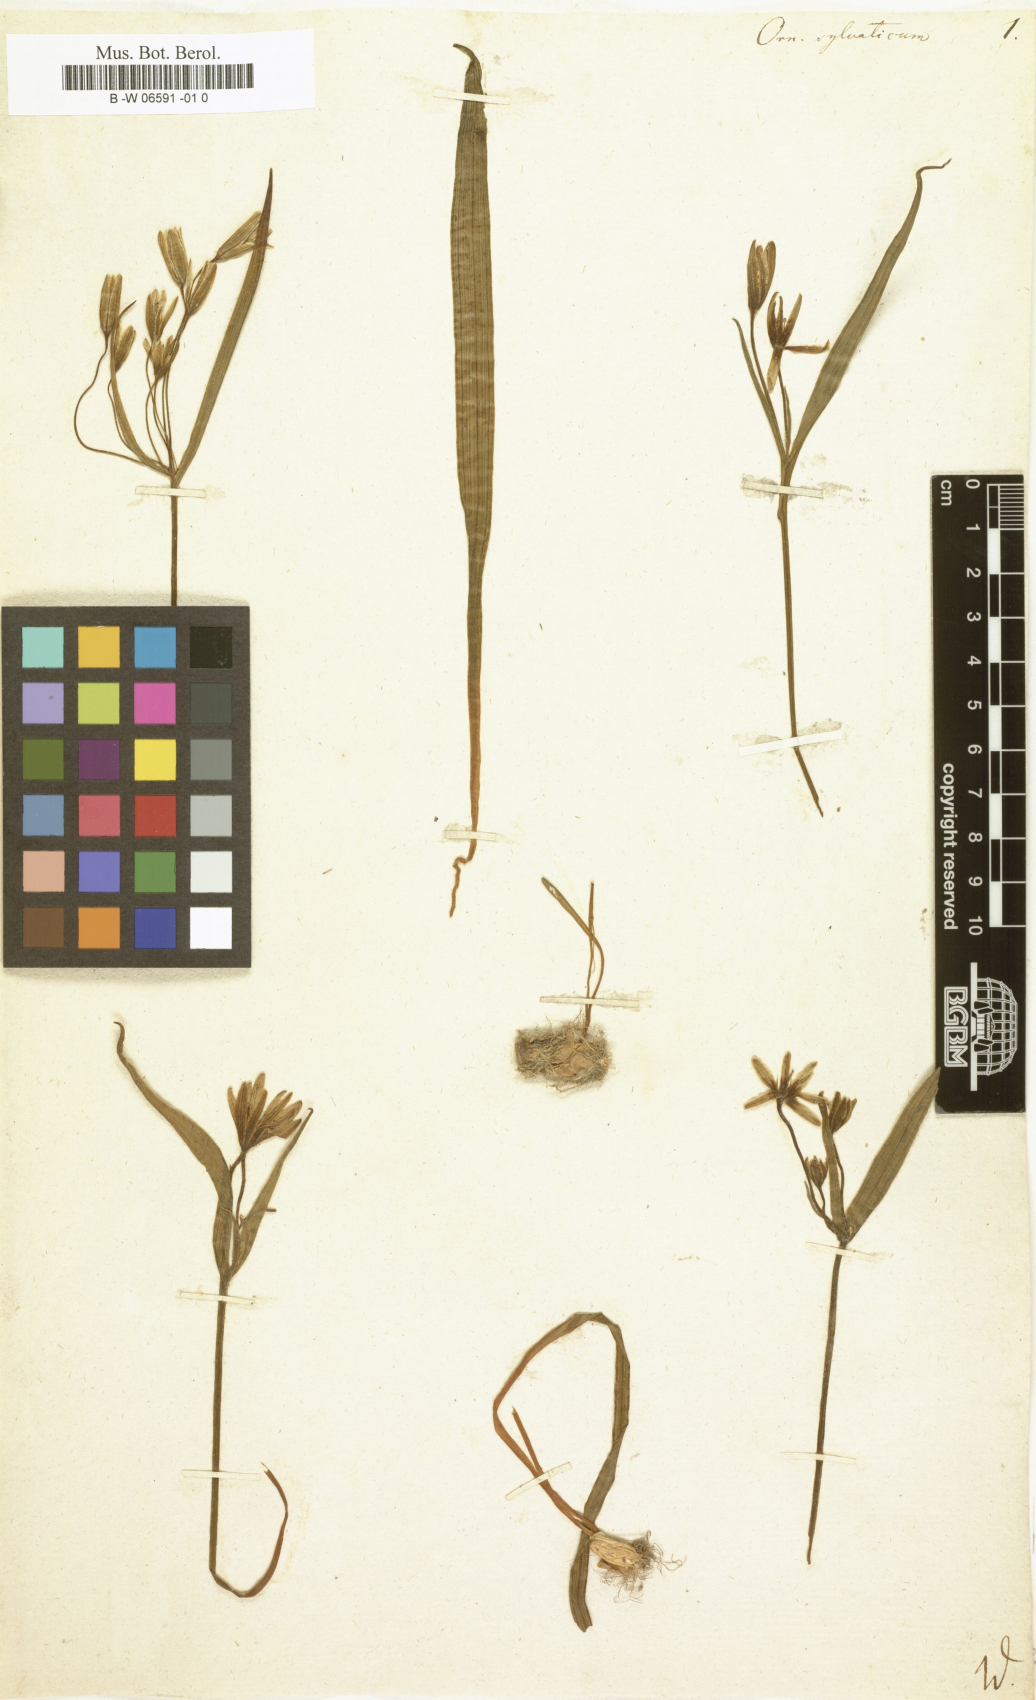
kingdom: Plantae
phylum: Tracheophyta
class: Liliopsida
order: Liliales
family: Liliaceae
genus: Gagea
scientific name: Gagea lutea
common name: Yellow star-of-bethlehem
